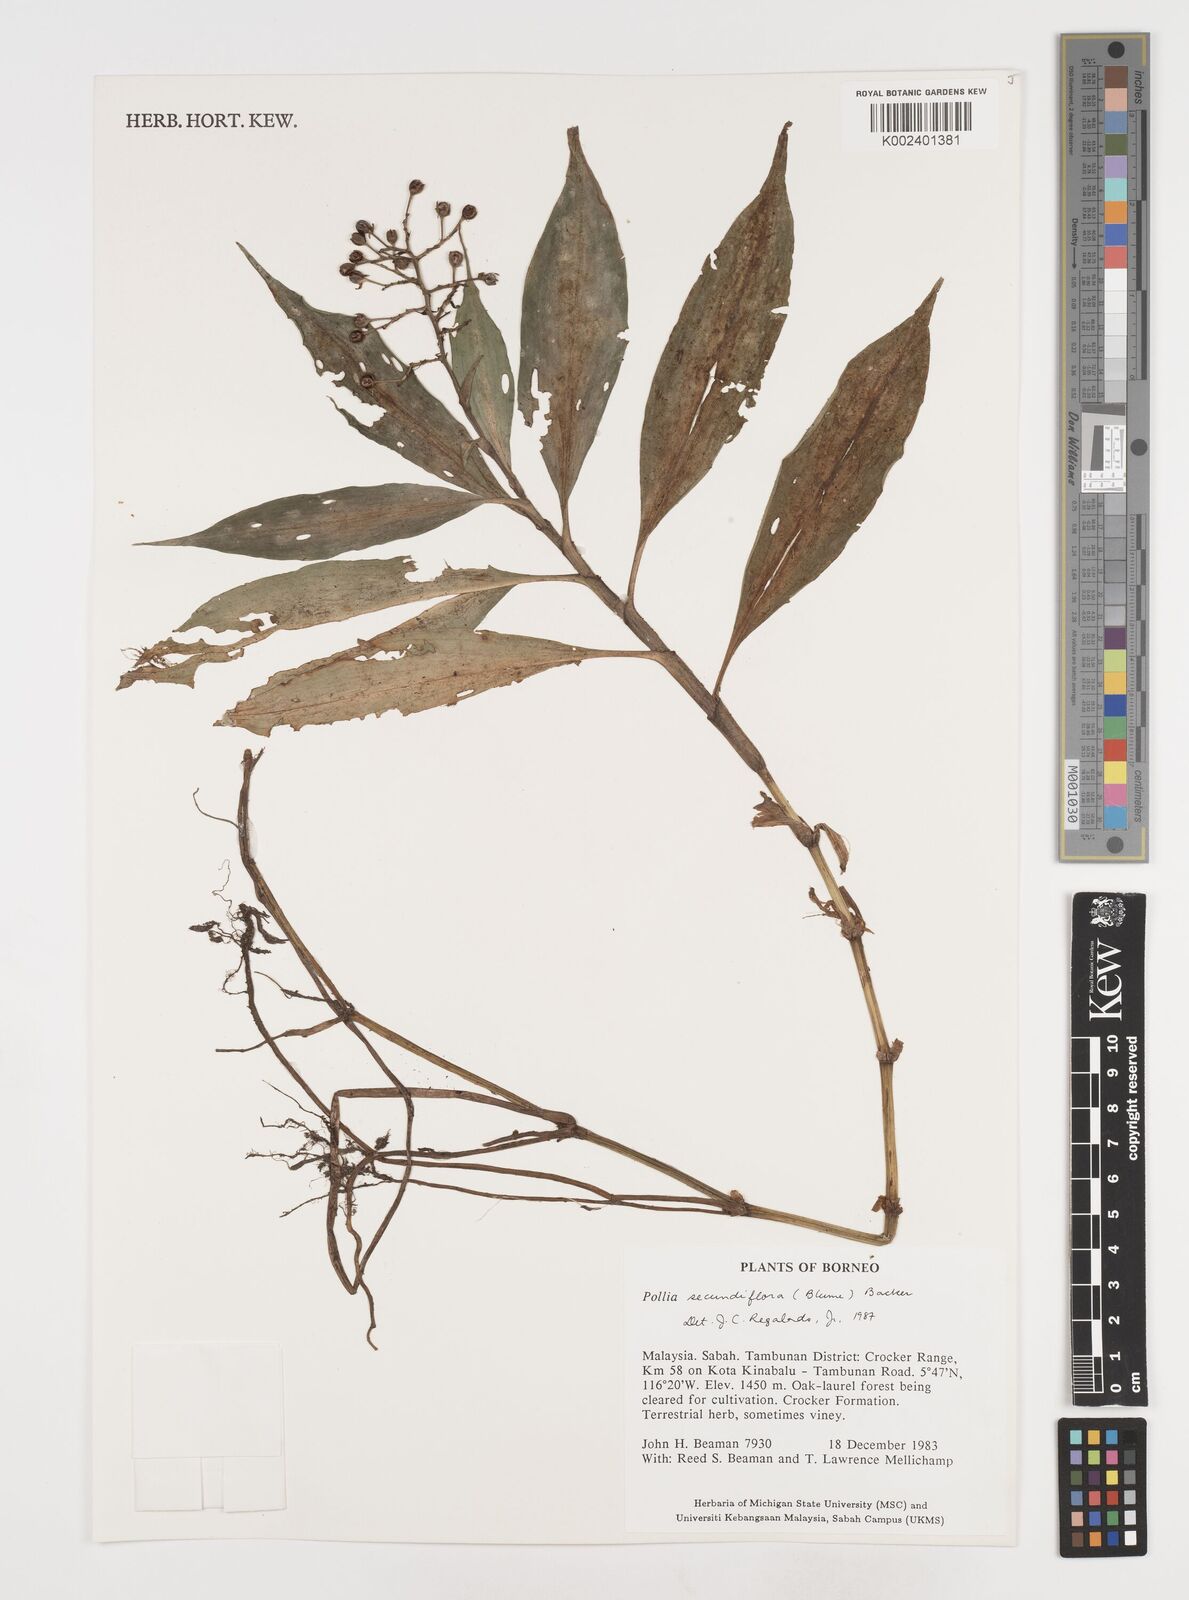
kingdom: Plantae
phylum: Tracheophyta
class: Liliopsida
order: Commelinales
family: Commelinaceae
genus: Pollia
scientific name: Pollia
